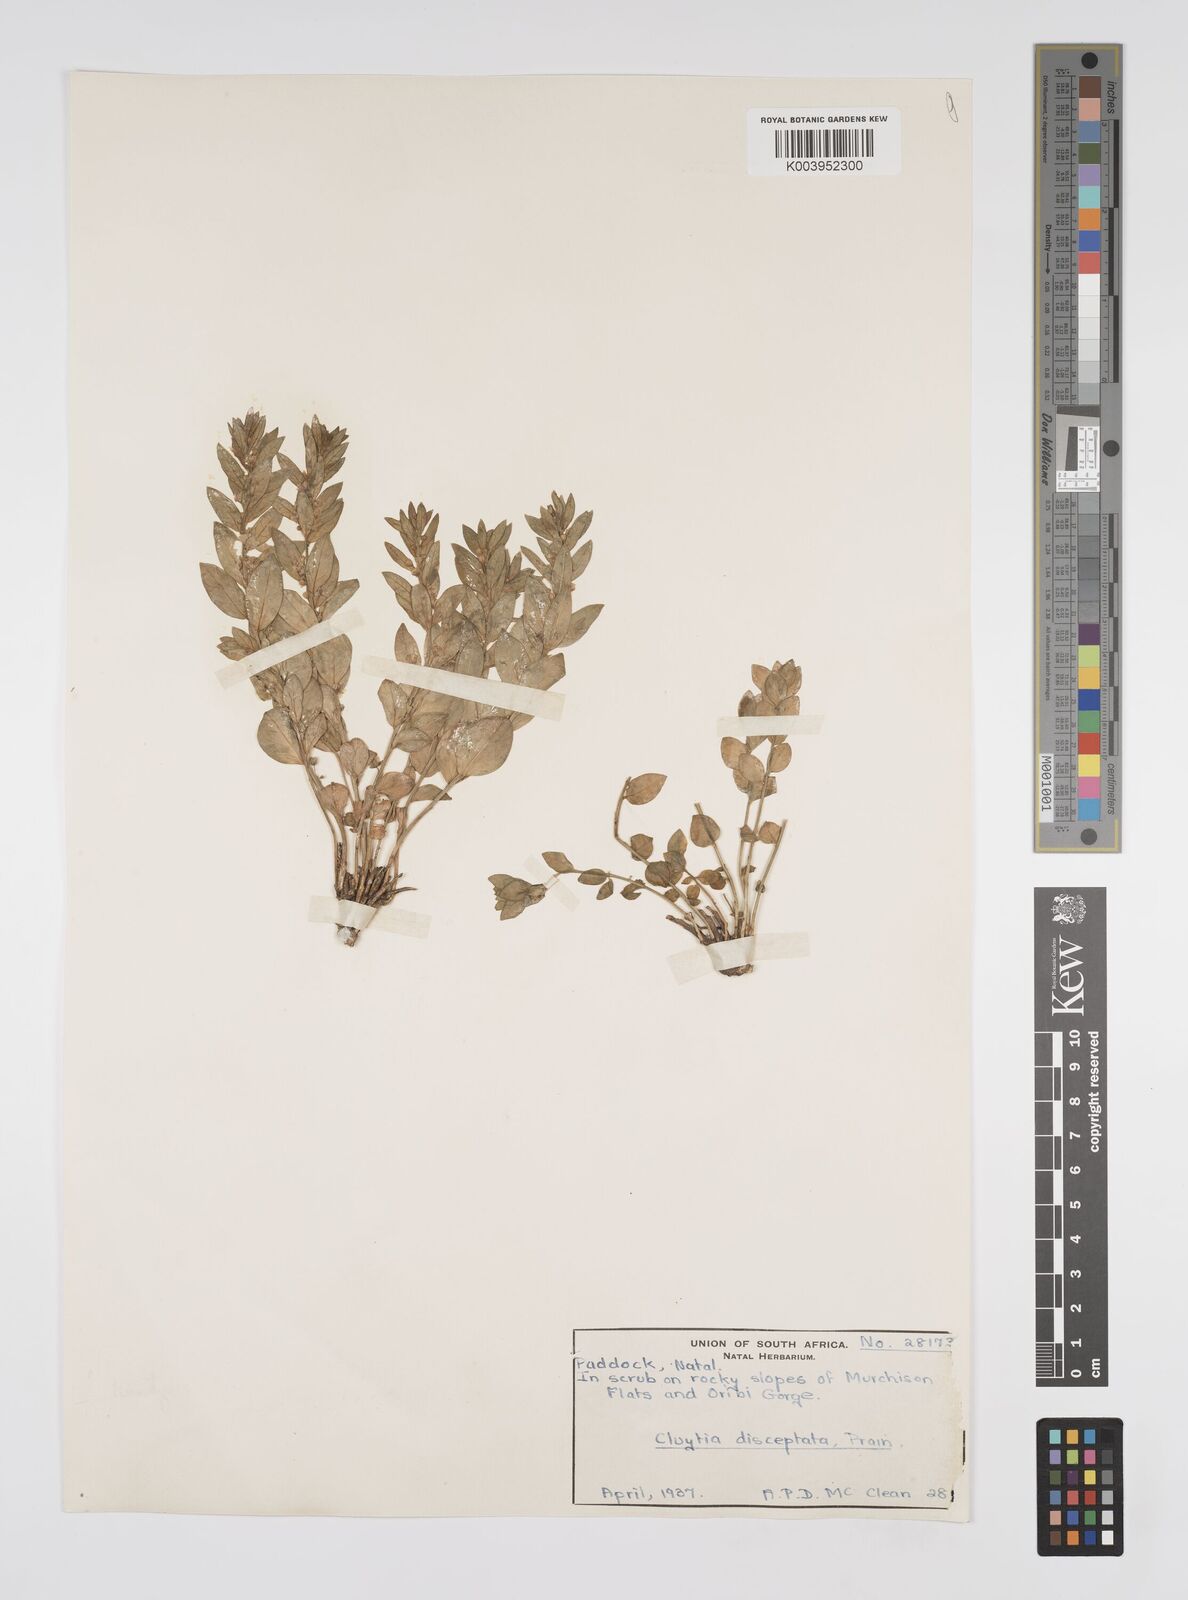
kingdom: Plantae
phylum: Tracheophyta
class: Magnoliopsida
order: Malpighiales
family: Peraceae
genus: Clutia
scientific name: Clutia disceptata
